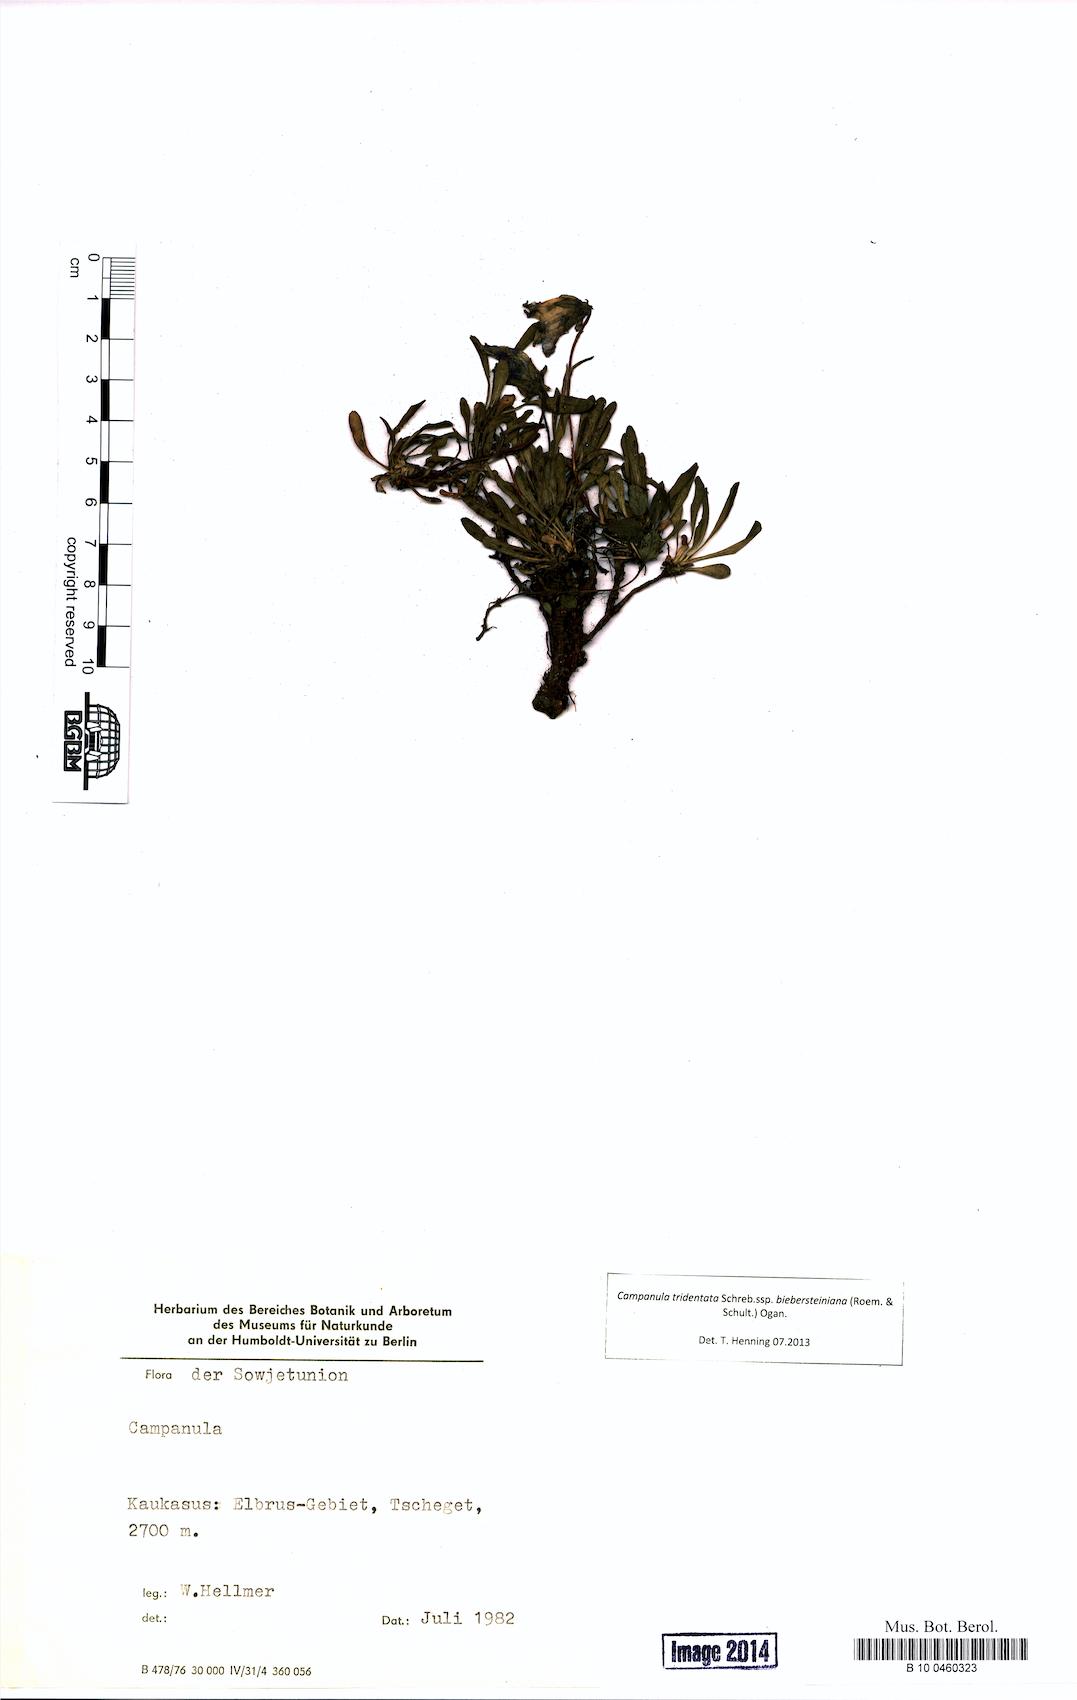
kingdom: Plantae
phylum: Tracheophyta
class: Magnoliopsida
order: Asterales
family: Campanulaceae
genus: Campanula
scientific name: Campanula tridentata
